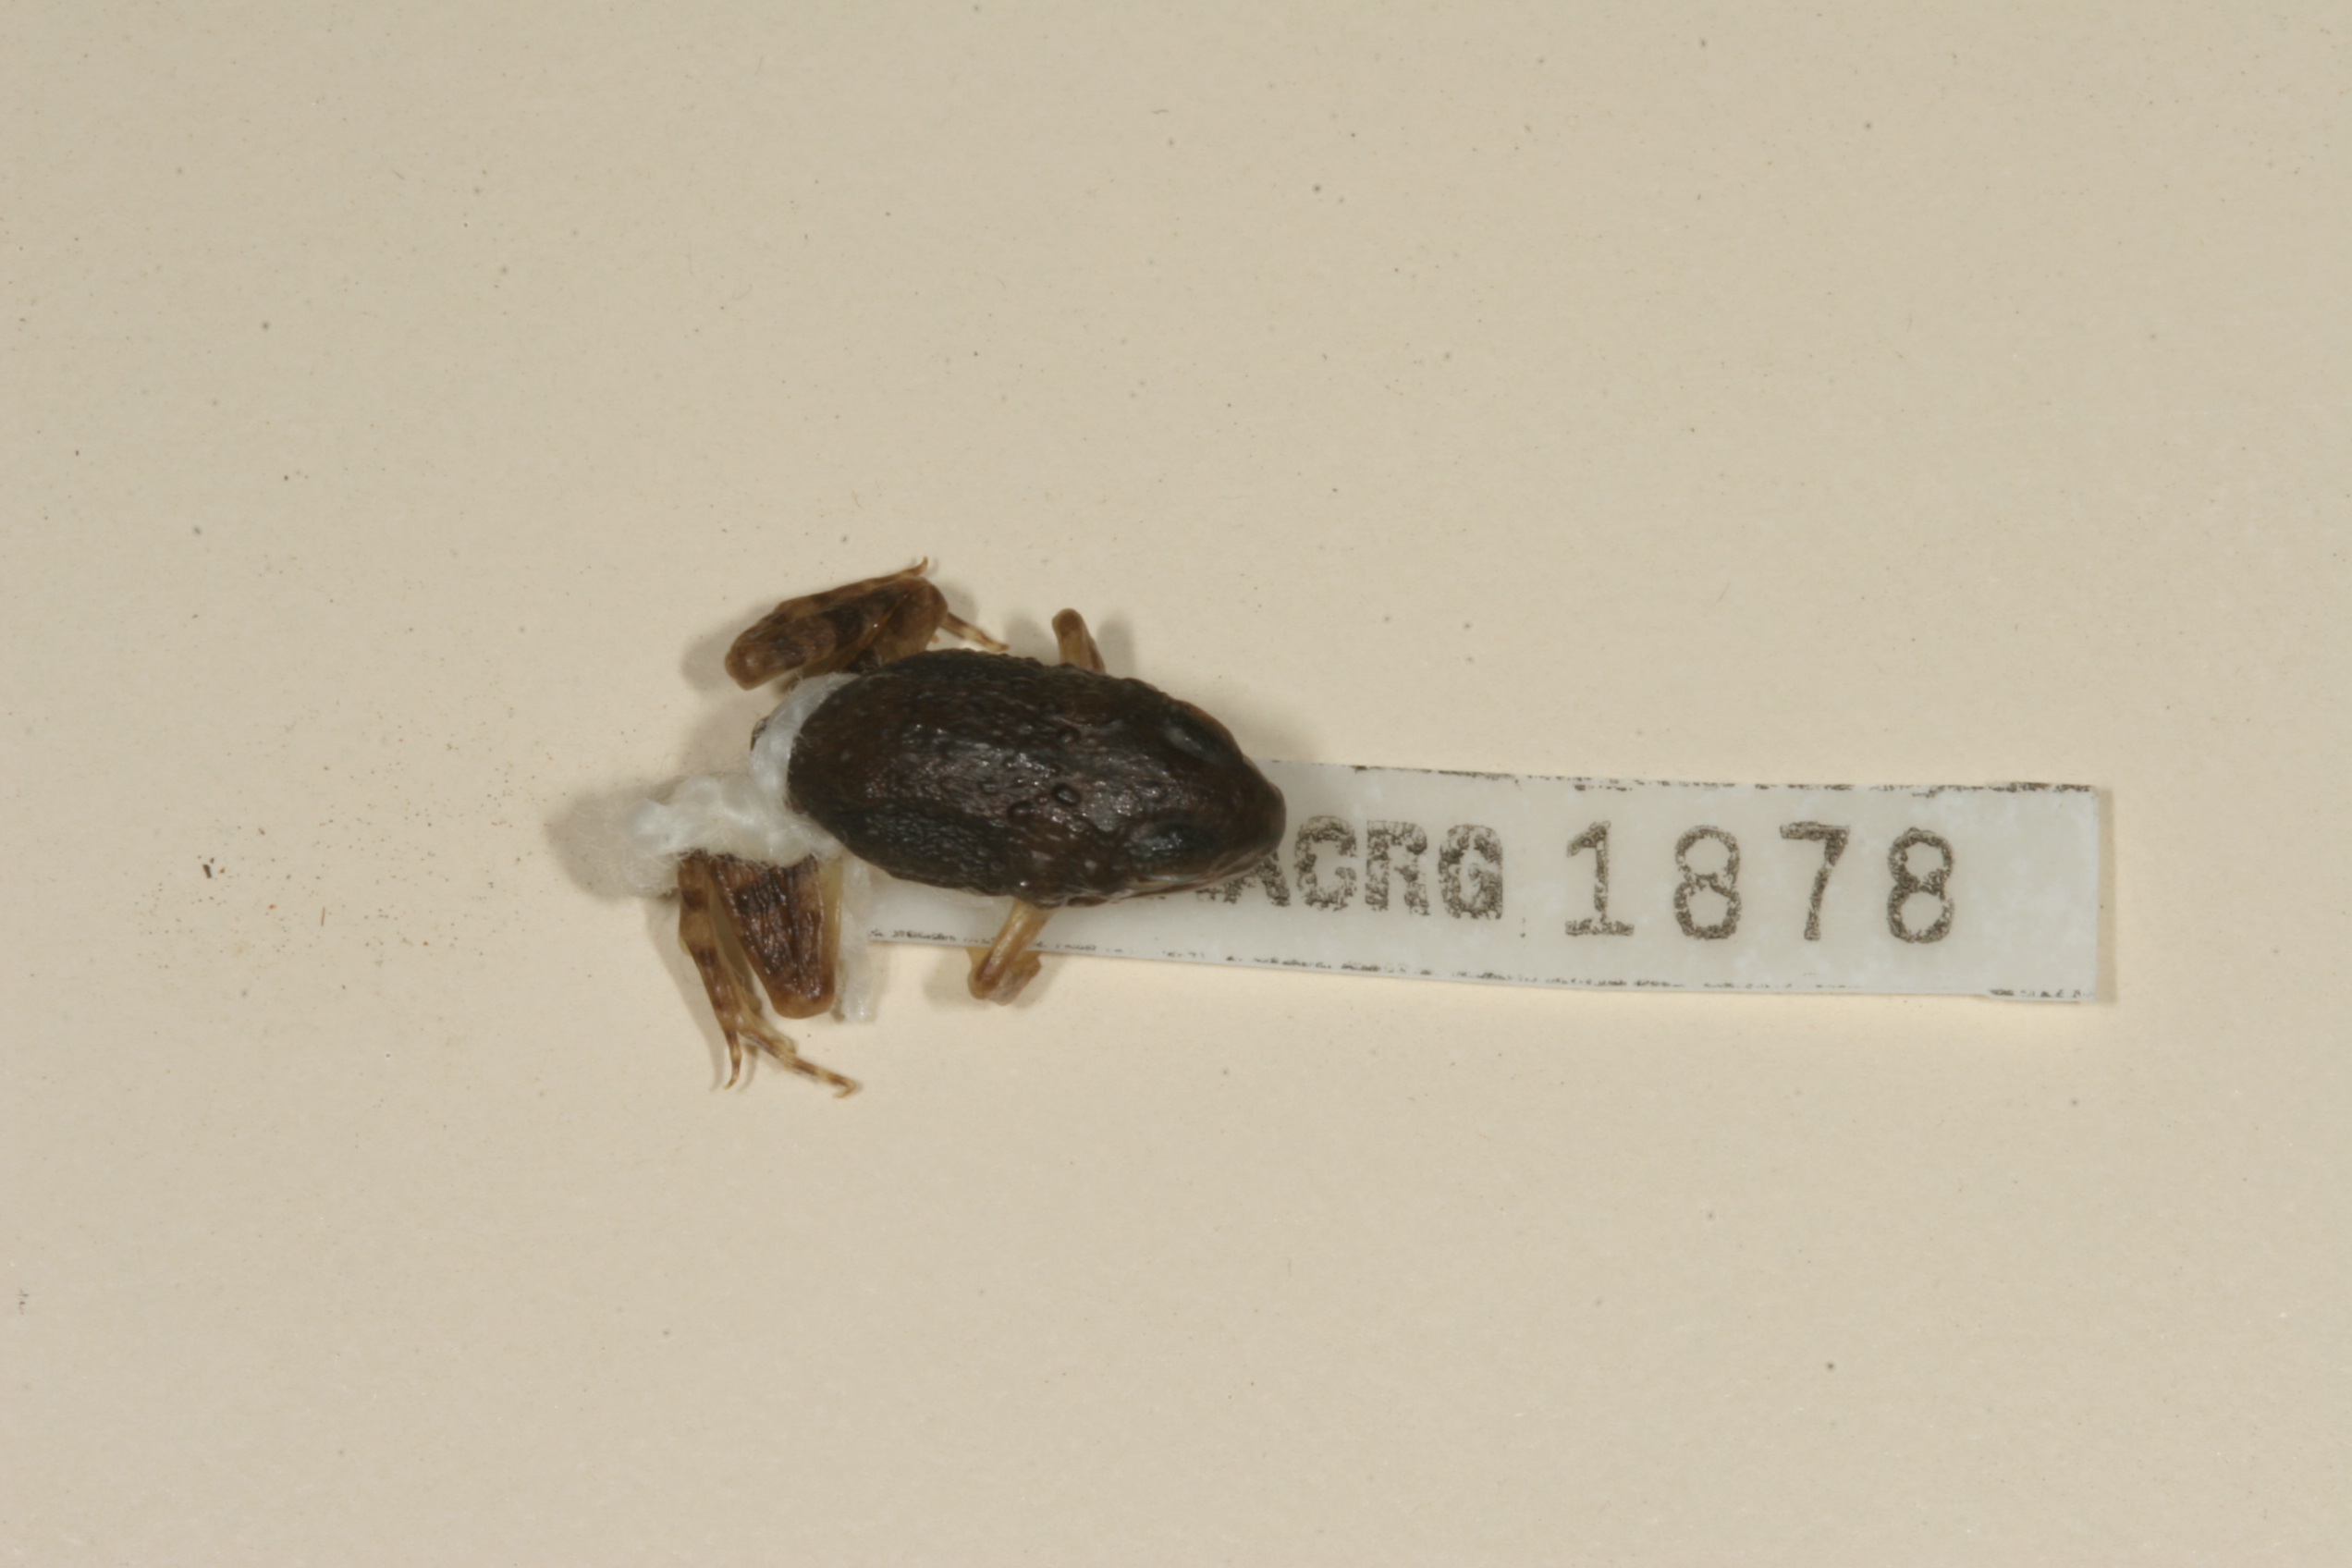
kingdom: Animalia
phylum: Chordata
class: Amphibia
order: Anura
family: Phrynobatrachidae
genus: Phrynobatrachus
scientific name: Phrynobatrachus mababiensis
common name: Dwarf puddle frog
